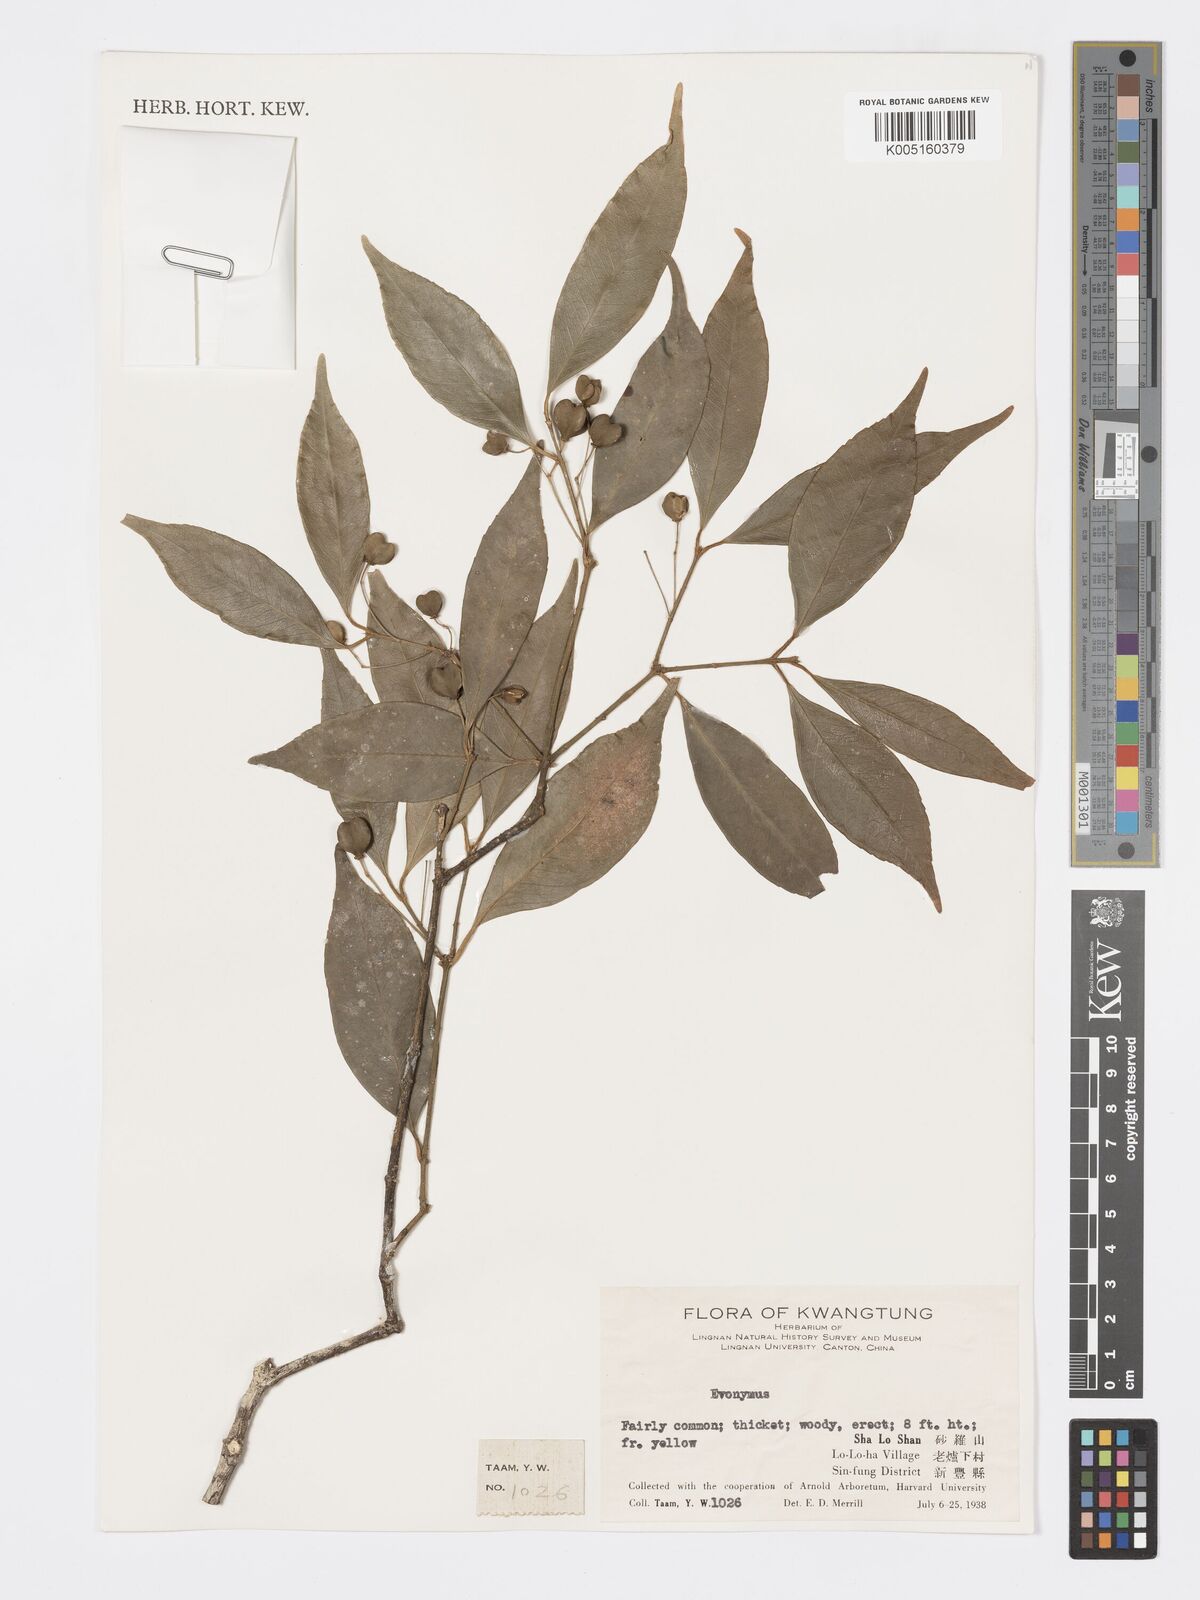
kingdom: Plantae
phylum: Tracheophyta
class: Magnoliopsida
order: Celastrales
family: Celastraceae
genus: Euonymus
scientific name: Euonymus
